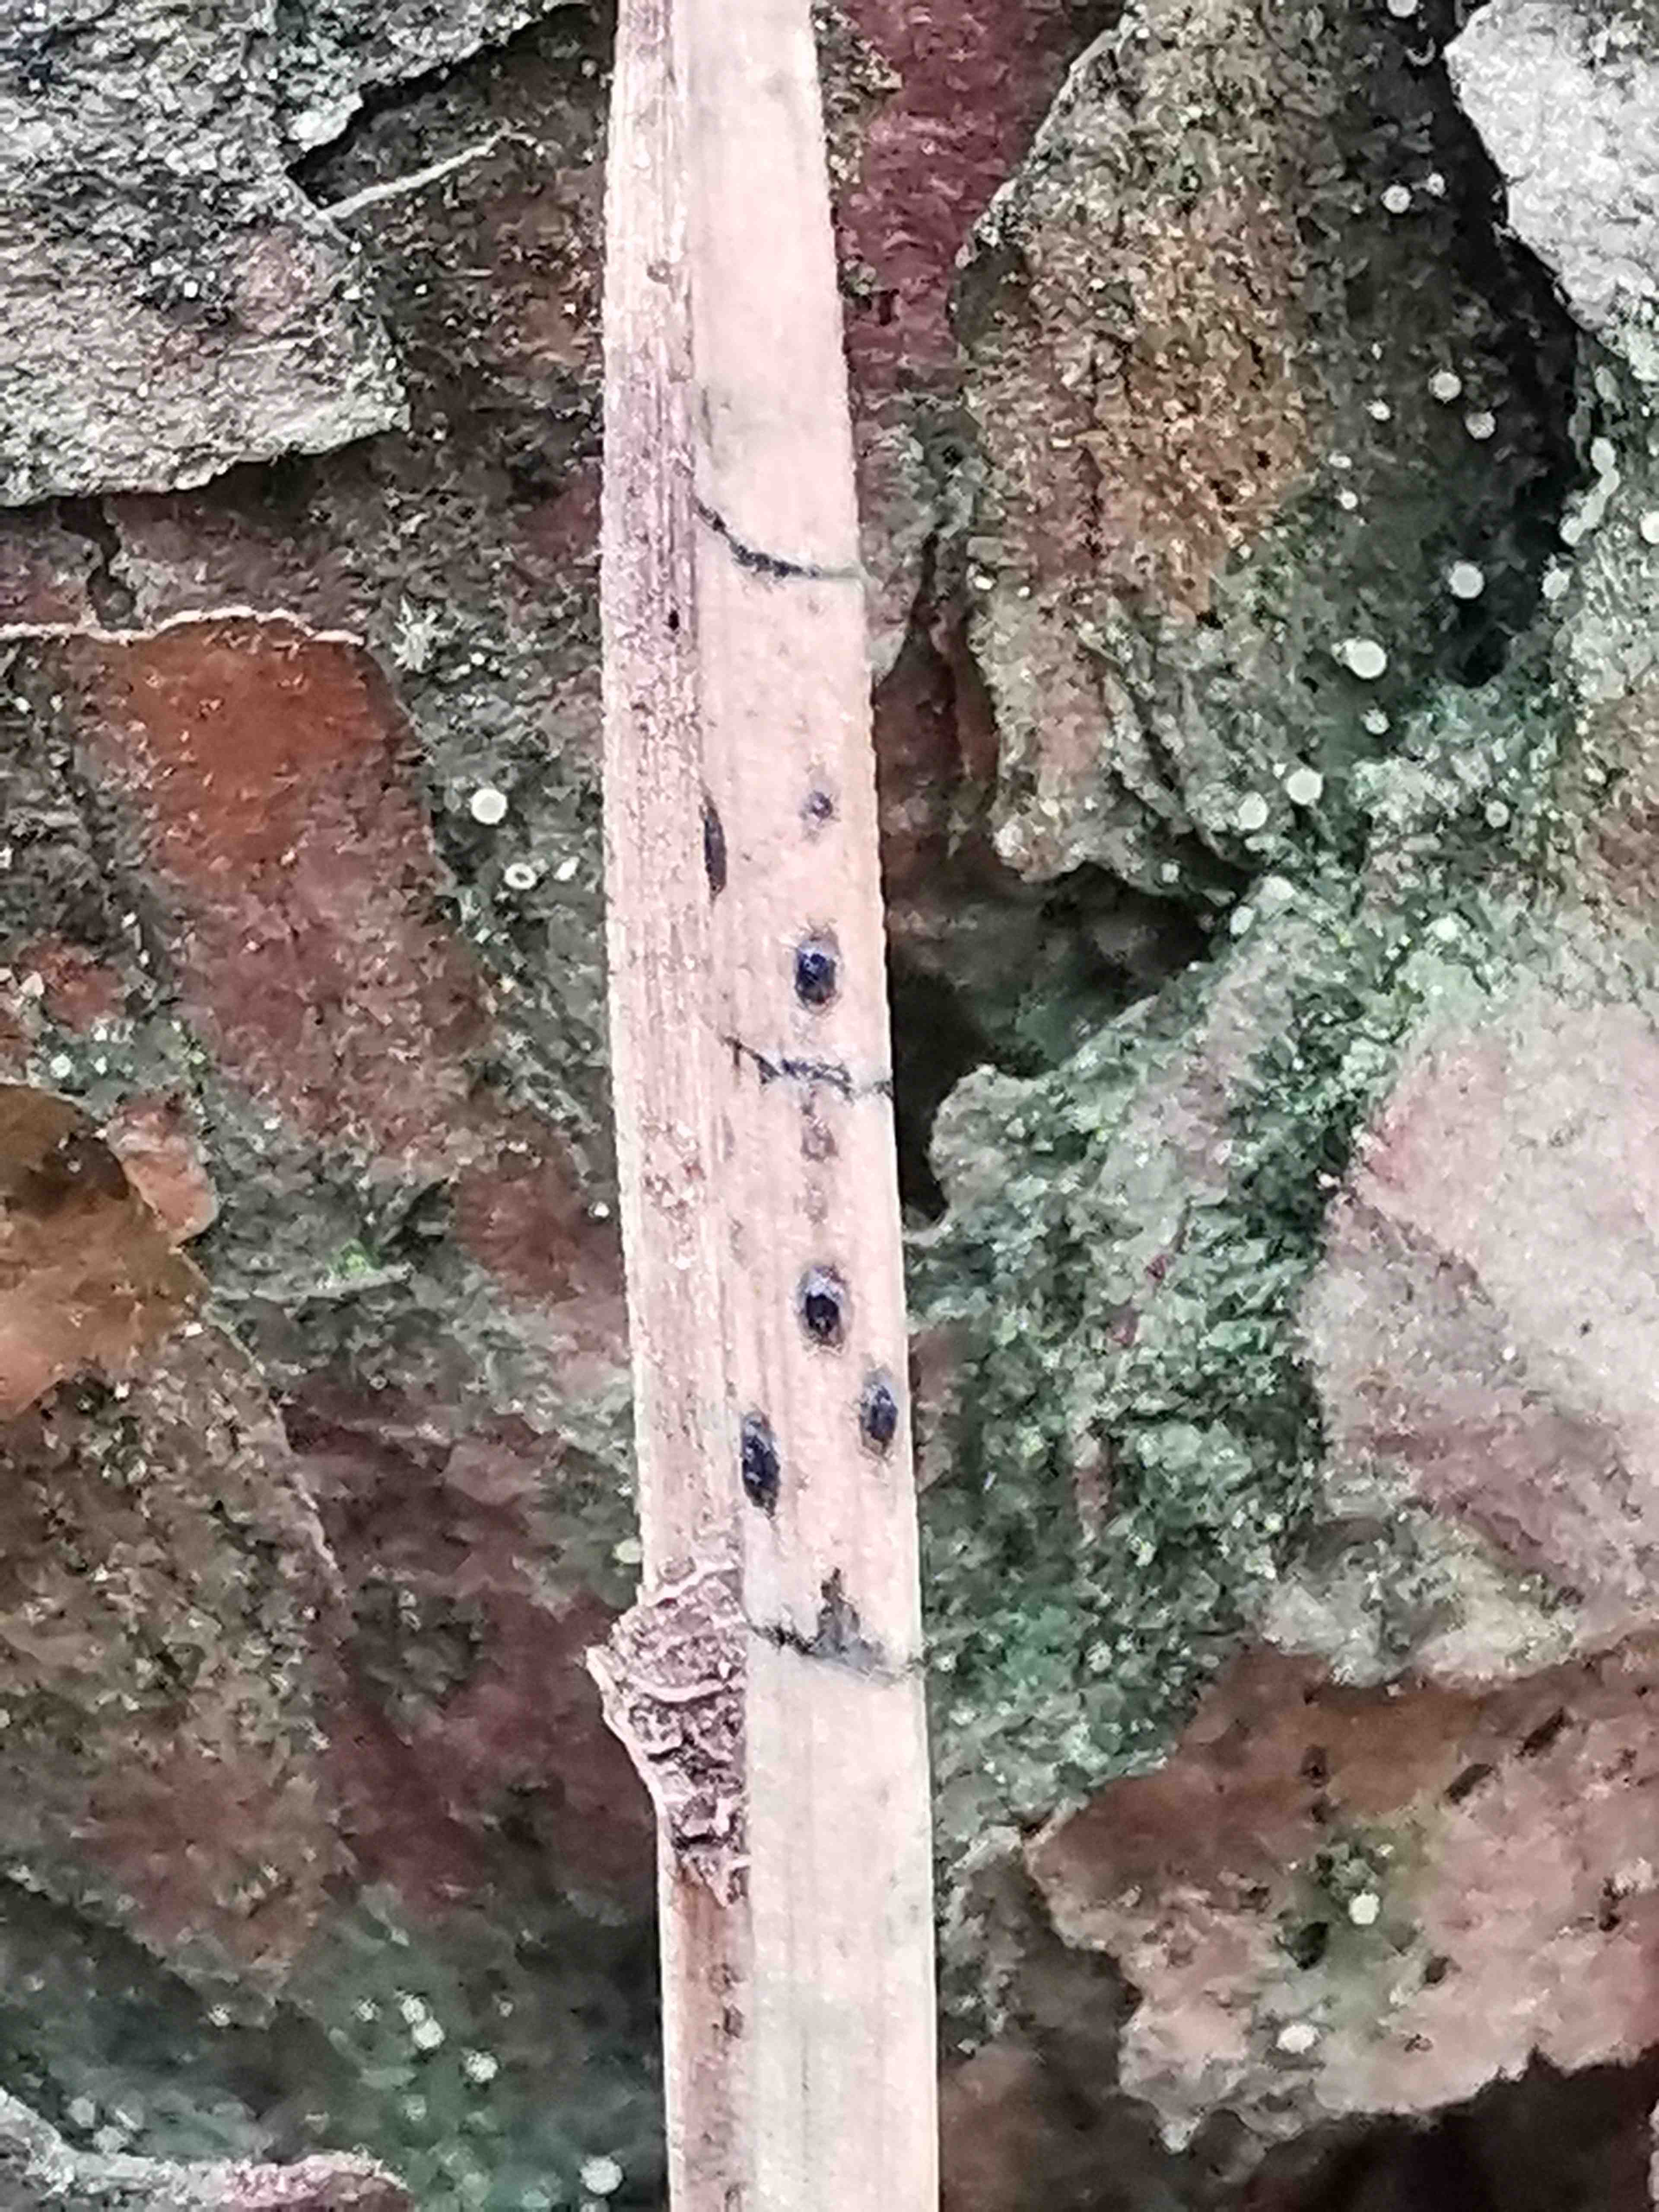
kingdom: Fungi
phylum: Ascomycota
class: Leotiomycetes
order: Rhytismatales
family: Rhytismataceae
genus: Lophodermium
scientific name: Lophodermium pinastri
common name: fyrre-fureplet
